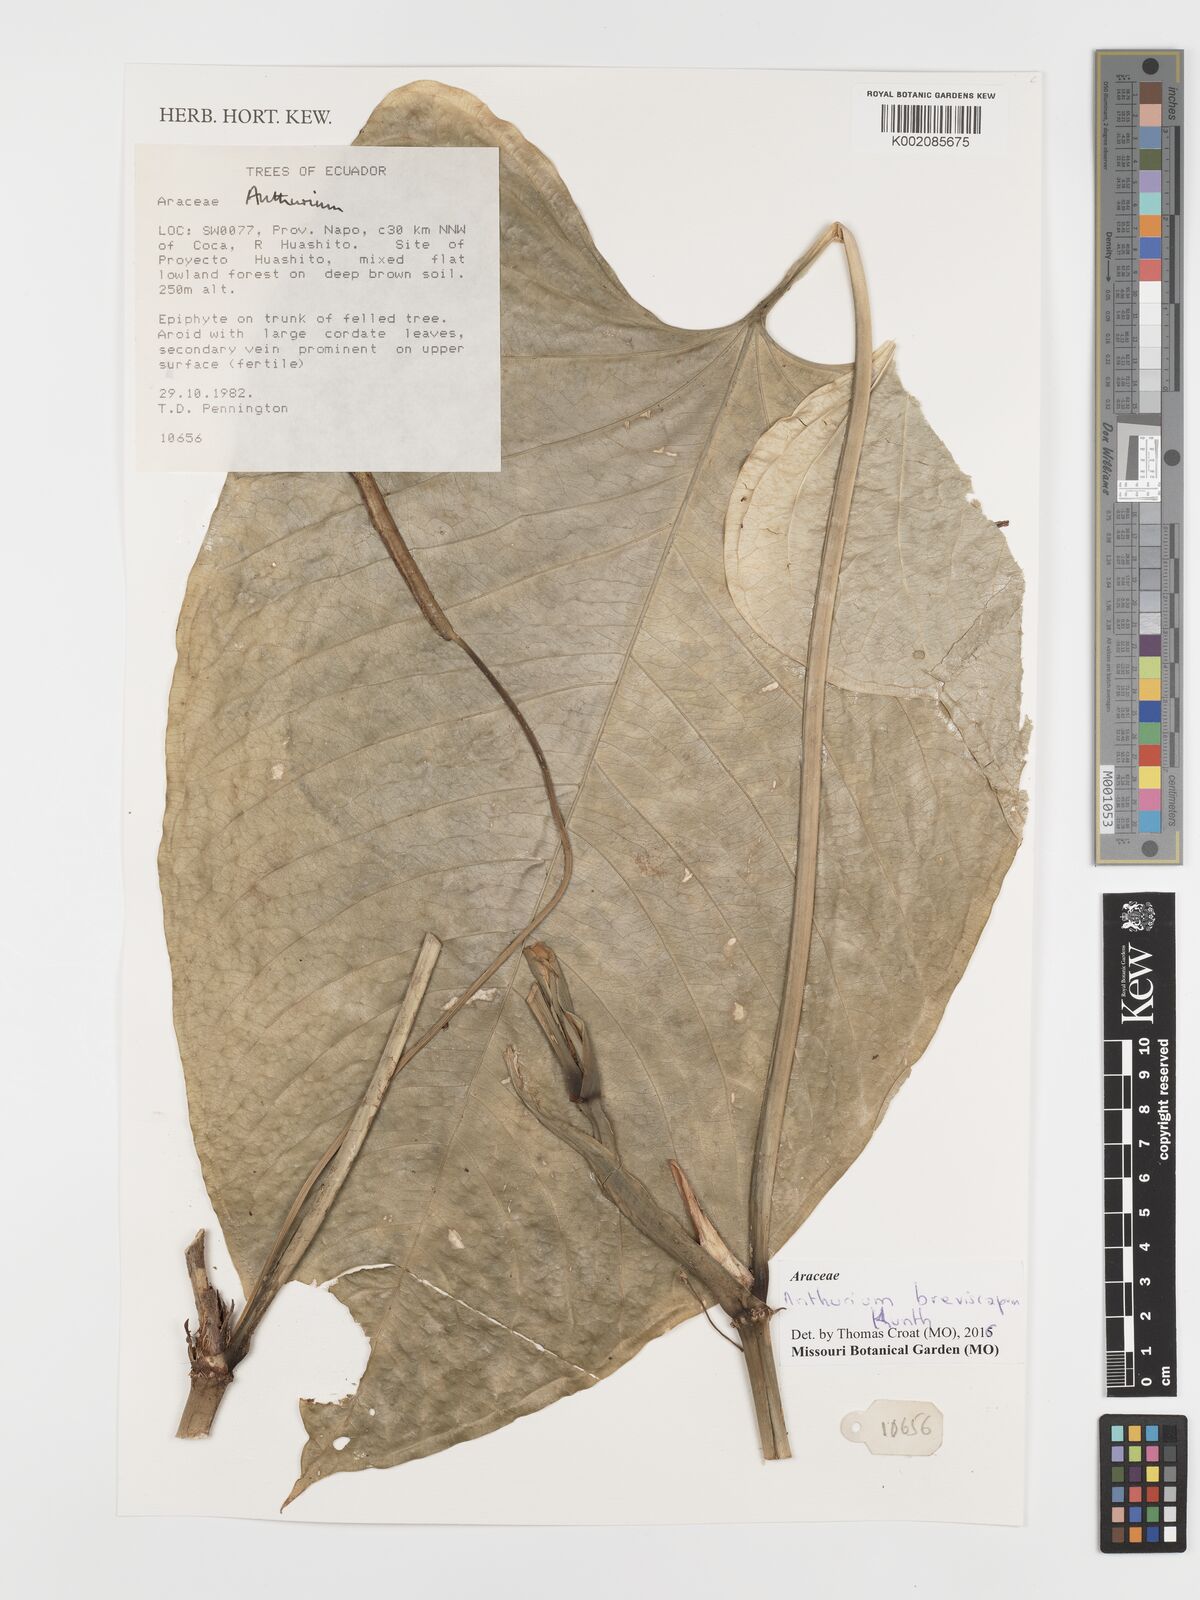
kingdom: Plantae
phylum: Tracheophyta
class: Liliopsida
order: Alismatales
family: Araceae
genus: Anthurium
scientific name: Anthurium breviscapum
